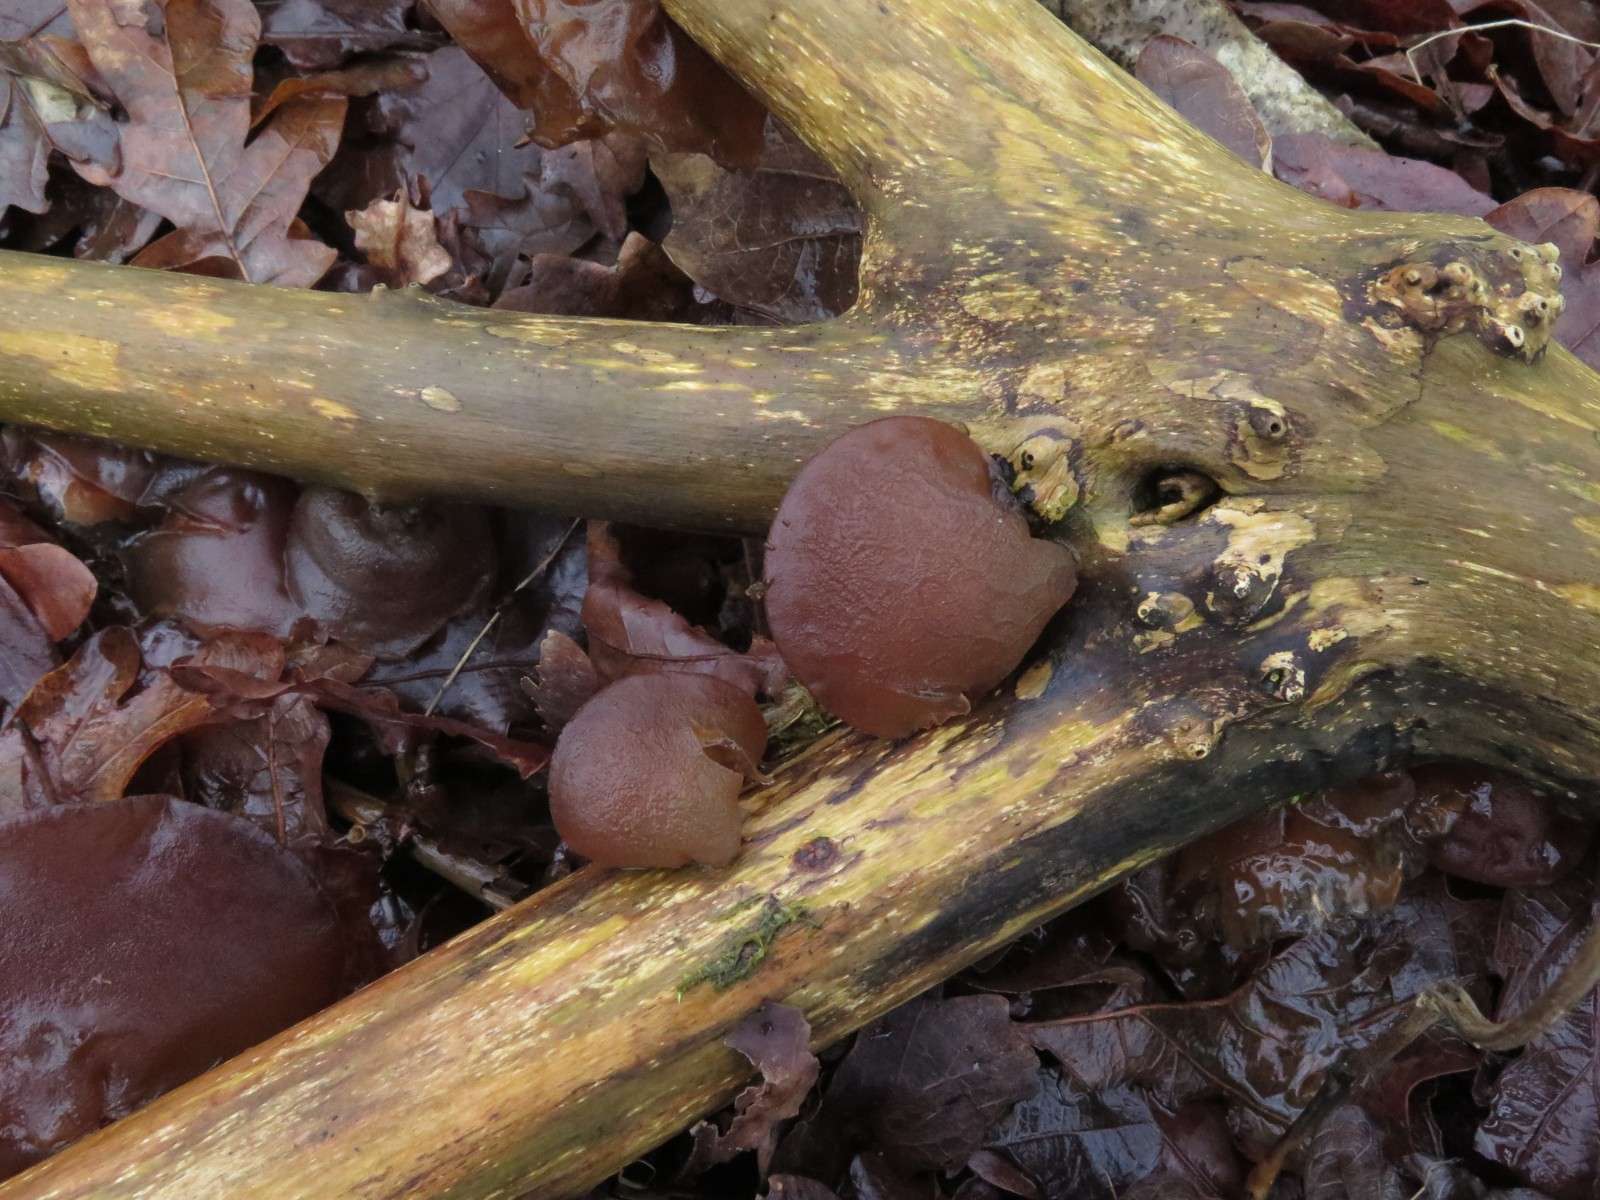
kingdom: Fungi
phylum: Basidiomycota
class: Agaricomycetes
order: Auriculariales
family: Auriculariaceae
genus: Auricularia
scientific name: Auricularia auricula-judae
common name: almindelig judasøre
